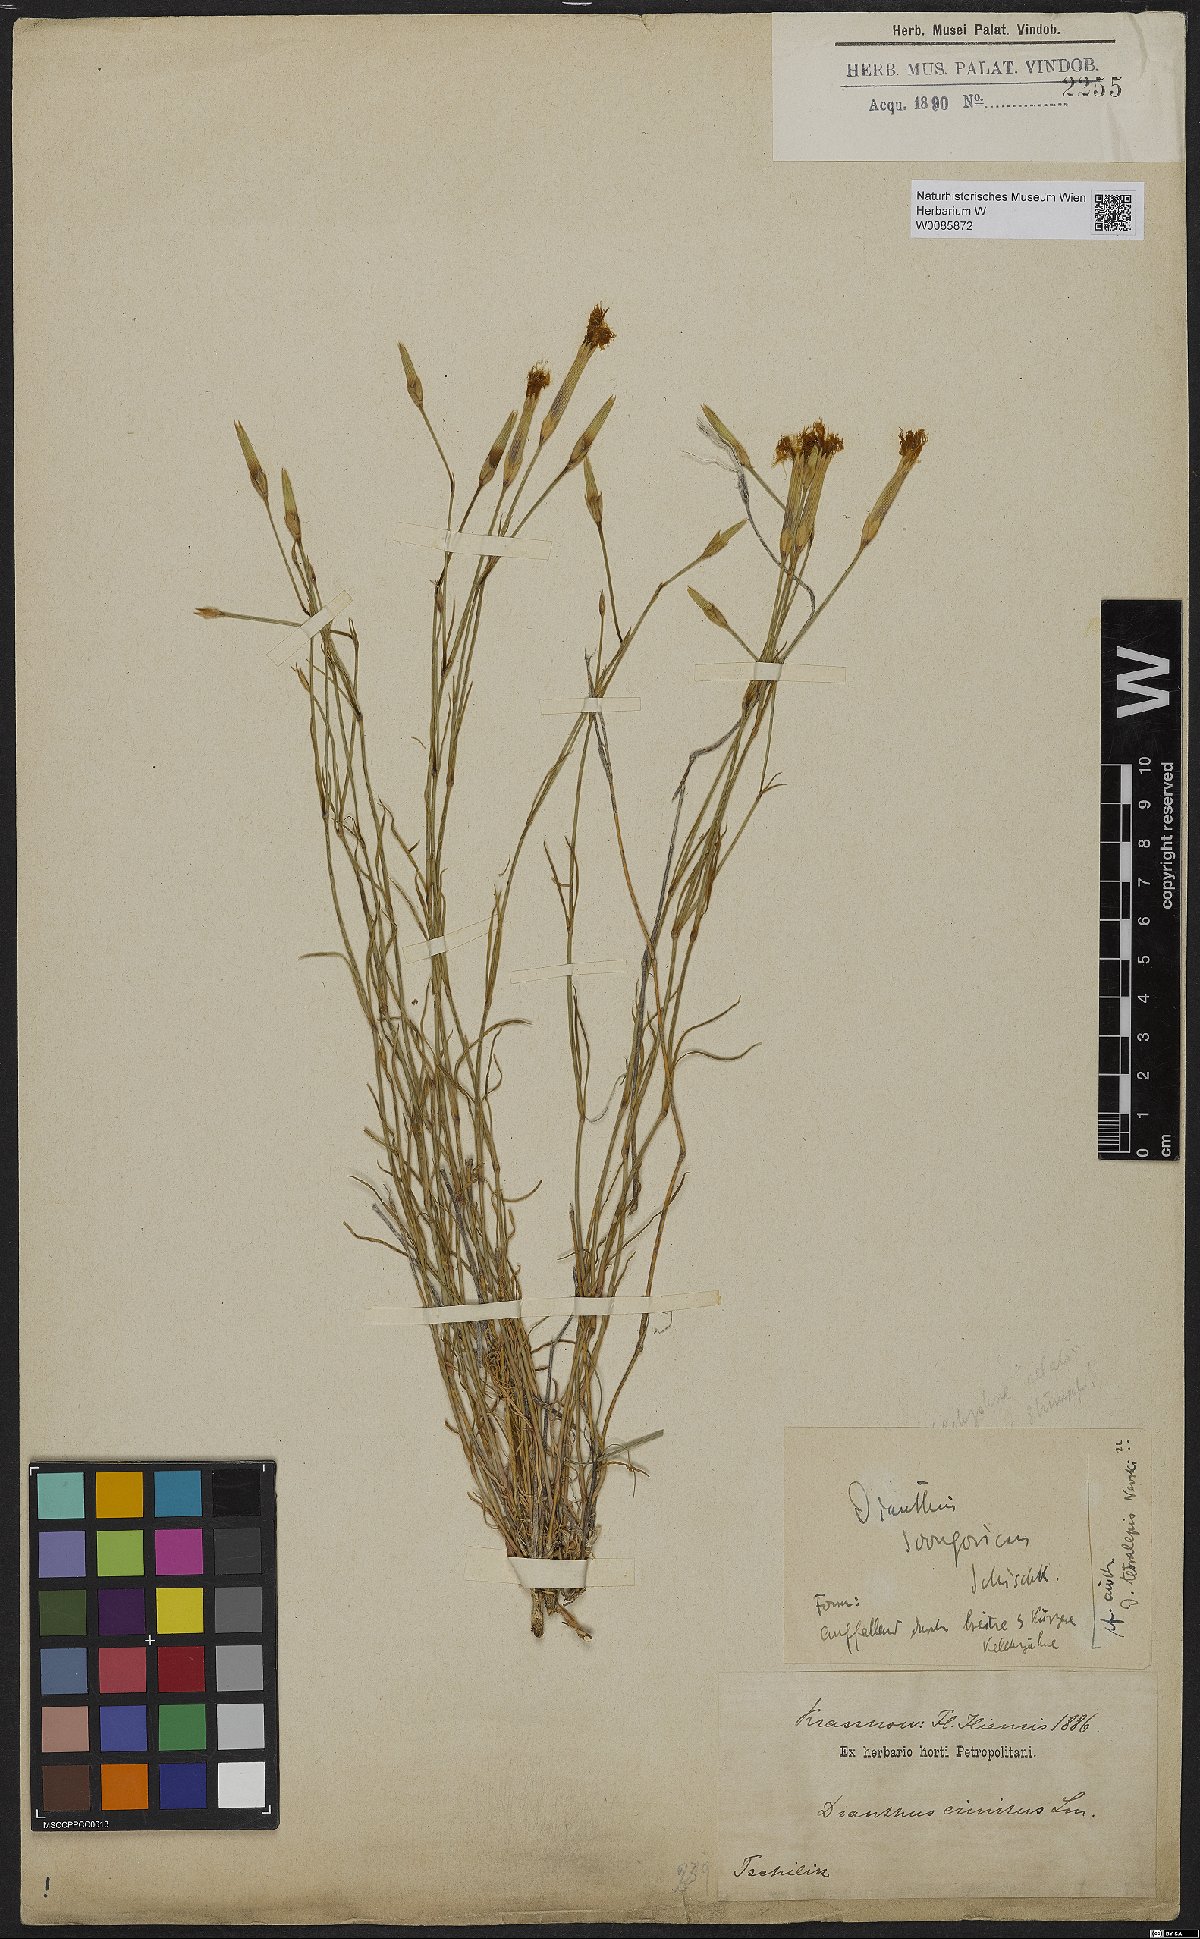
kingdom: Plantae
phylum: Tracheophyta
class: Magnoliopsida
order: Caryophyllales
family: Caryophyllaceae
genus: Dianthus
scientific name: Dianthus crinitus
